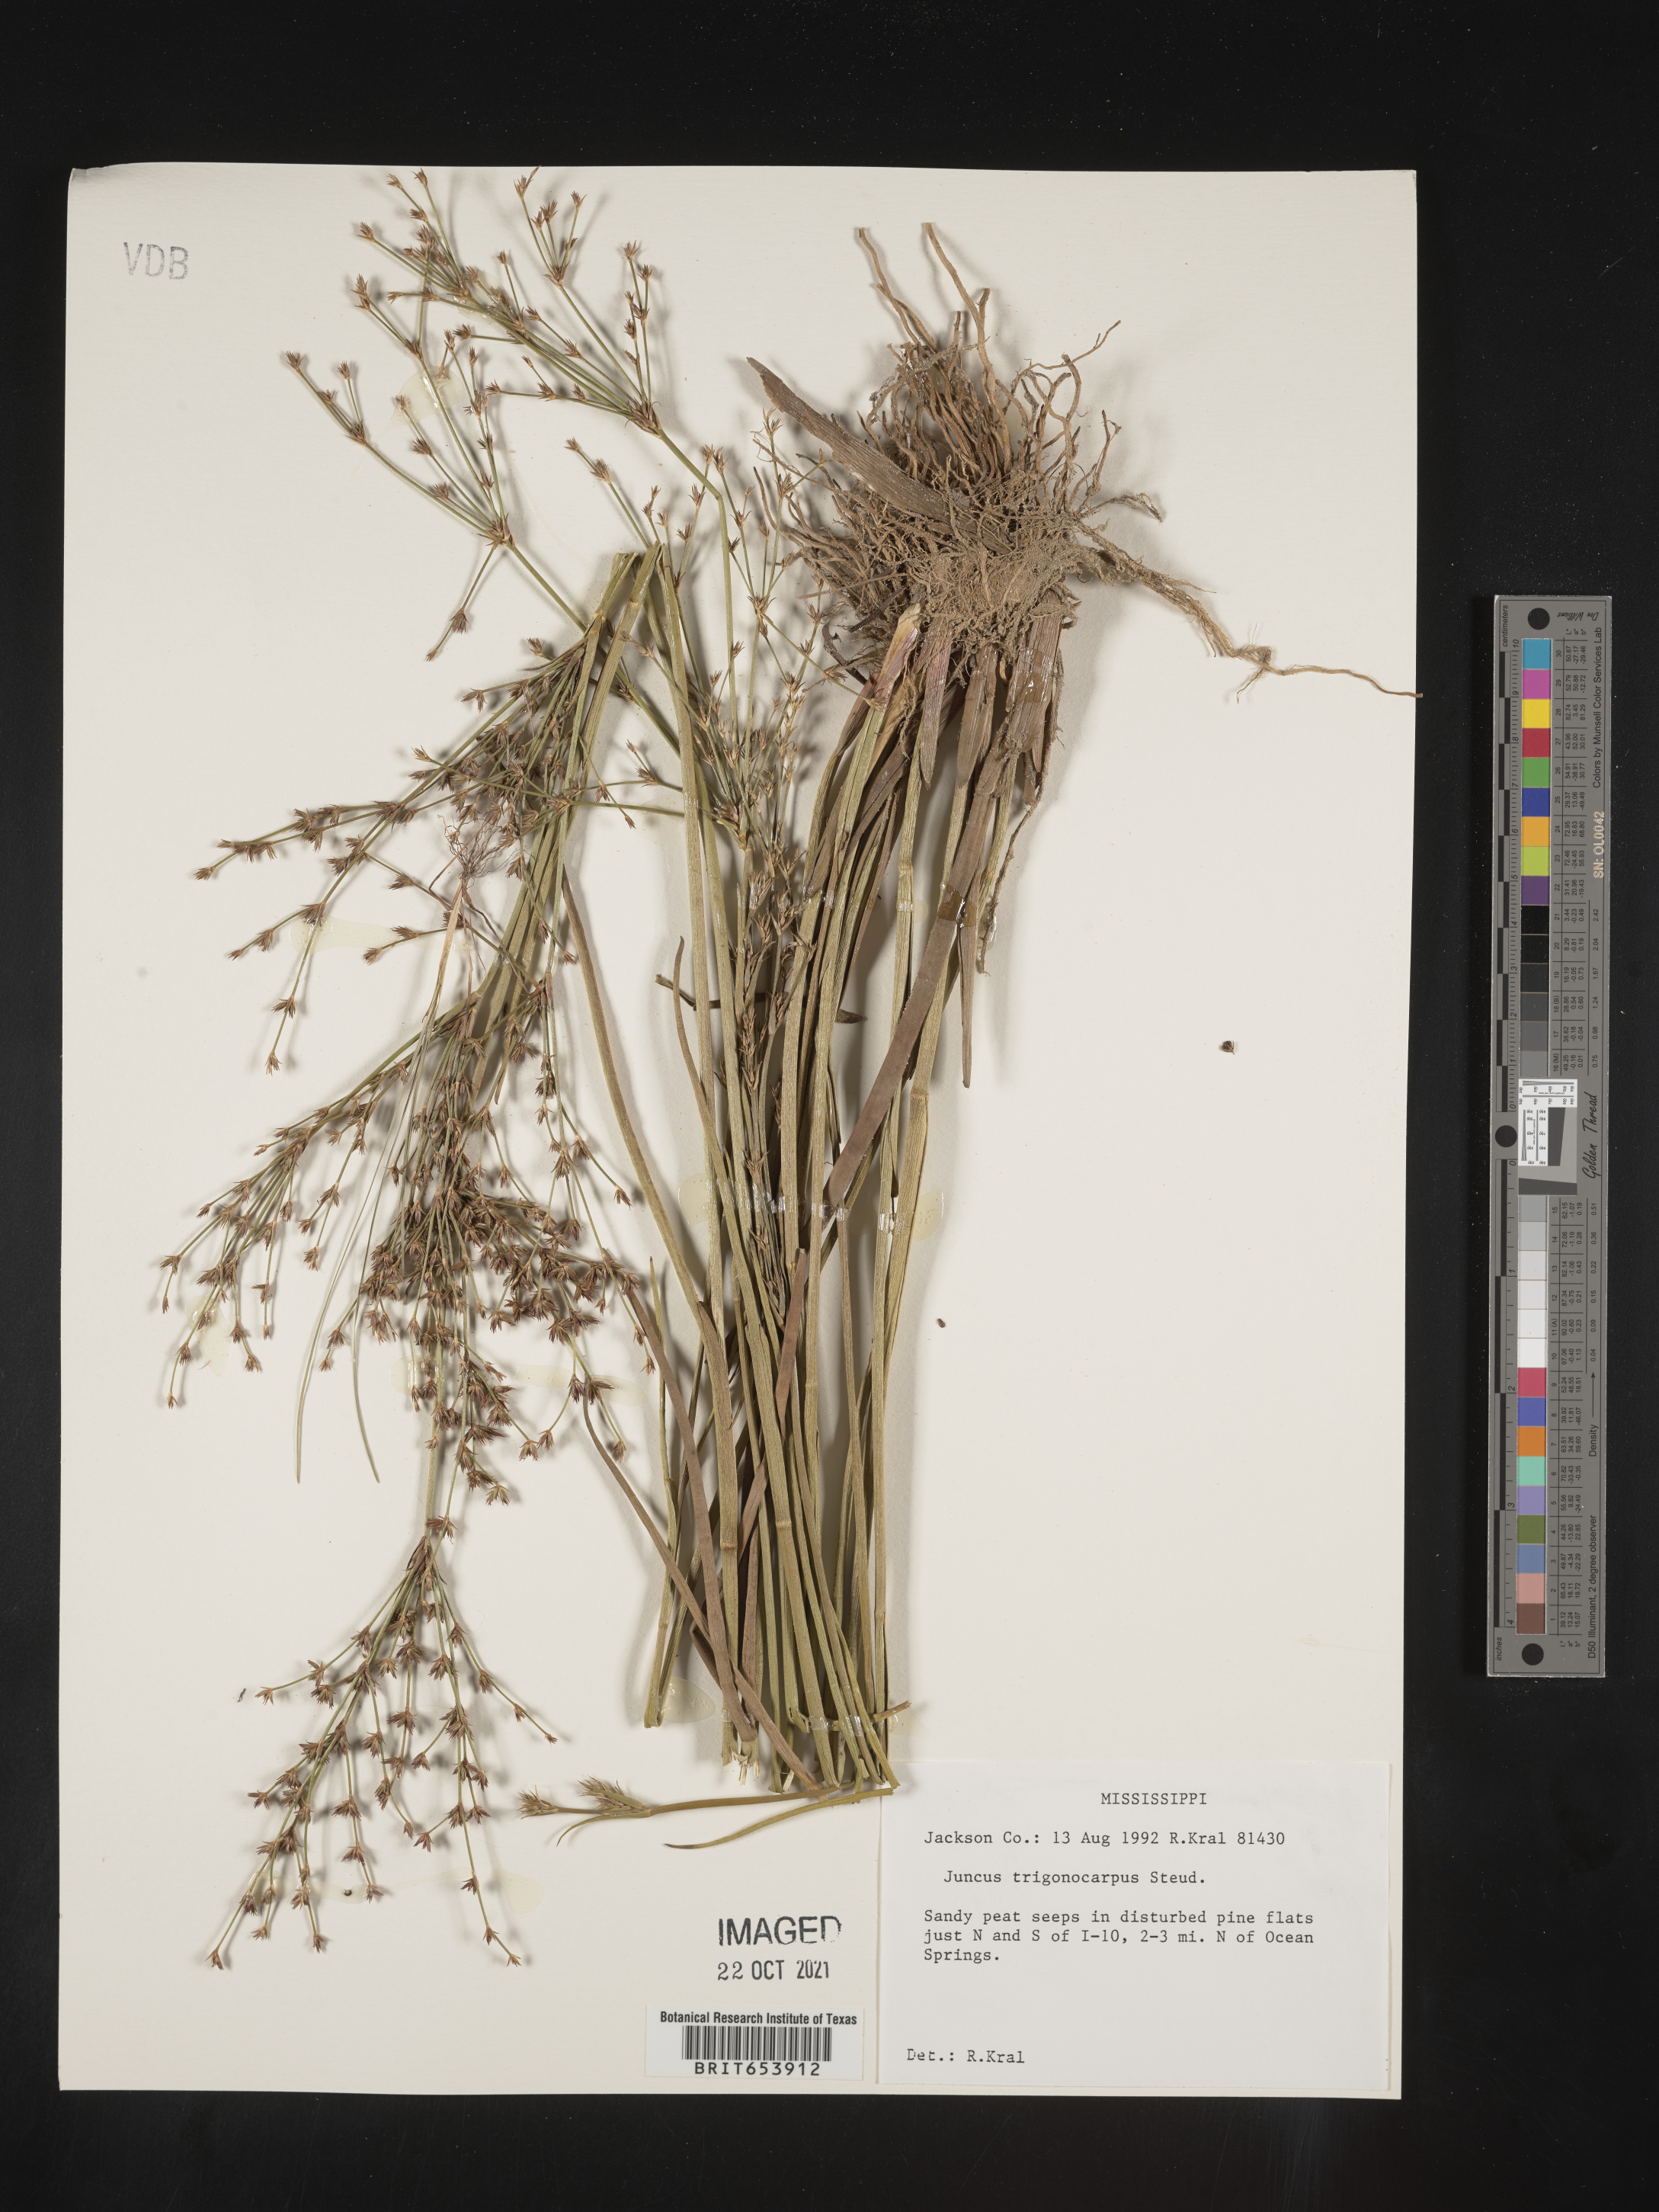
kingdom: Plantae
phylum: Tracheophyta
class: Liliopsida
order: Poales
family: Juncaceae
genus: Juncus
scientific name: Juncus trigonocarpus
